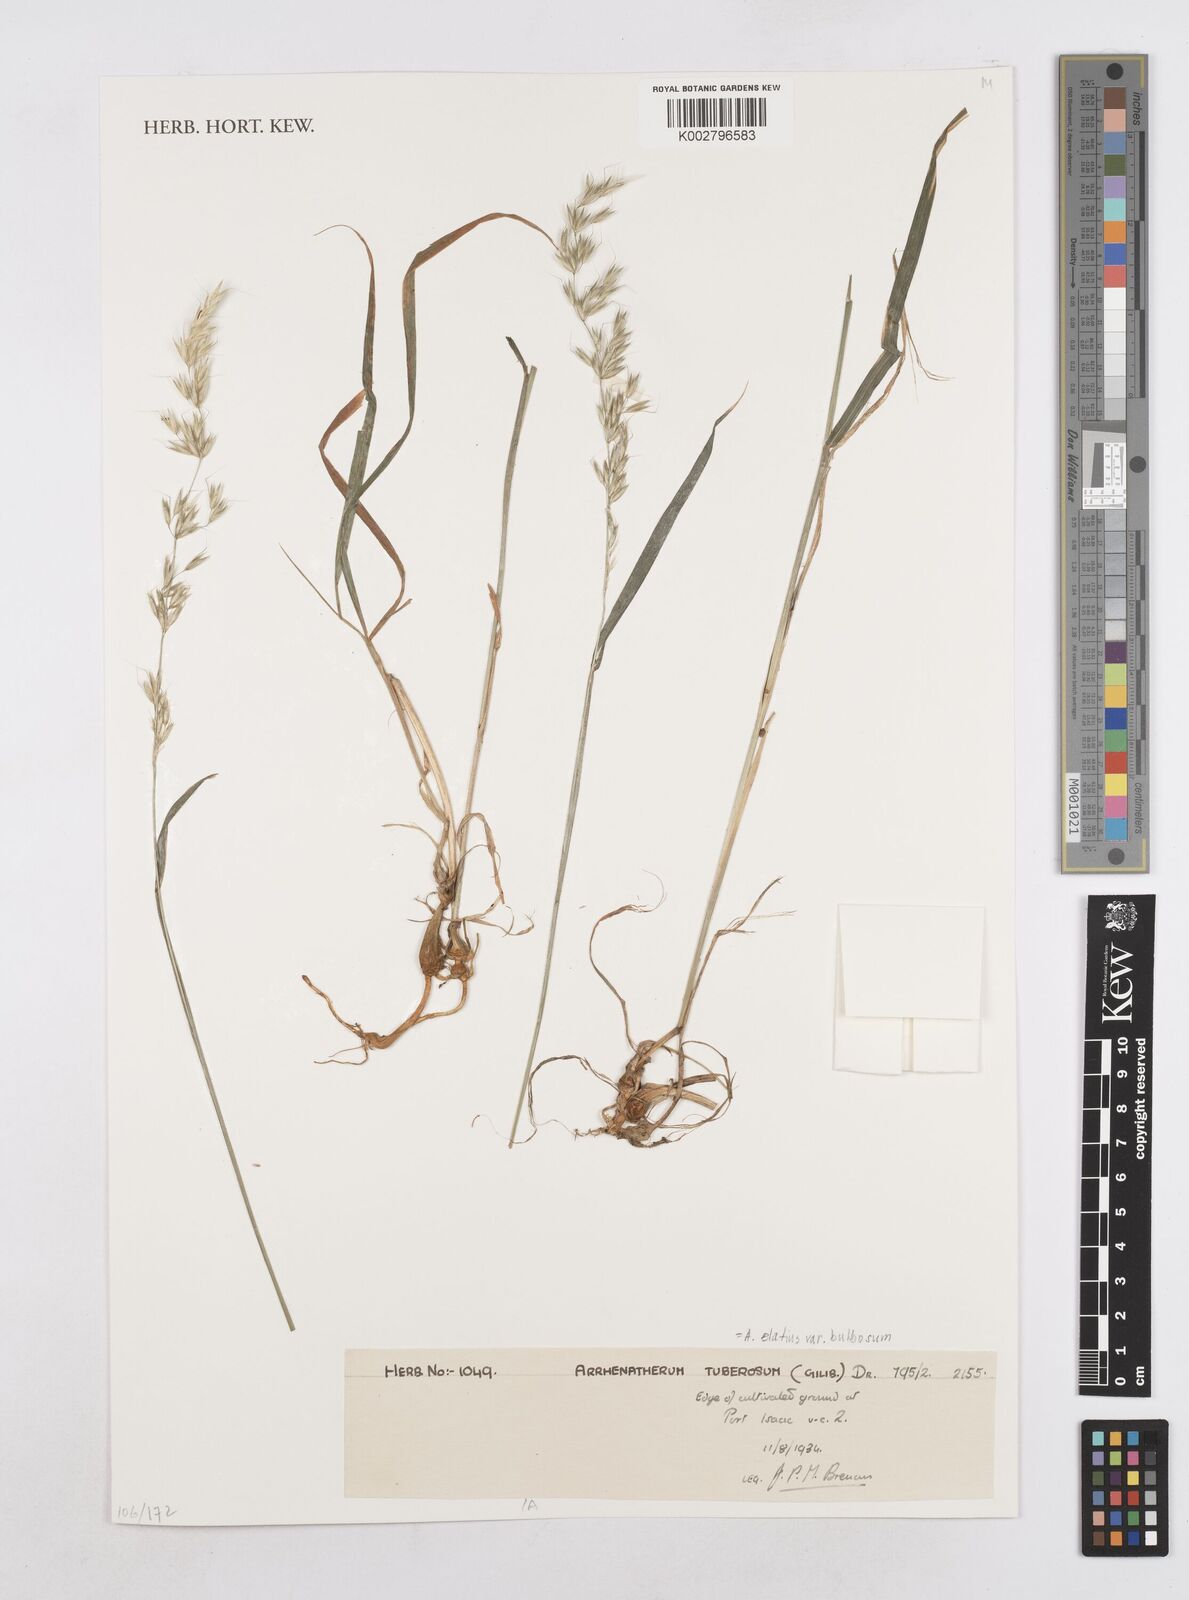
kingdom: Plantae
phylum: Tracheophyta
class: Liliopsida
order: Poales
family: Poaceae
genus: Arrhenatherum
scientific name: Arrhenatherum elatius
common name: Tall oatgrass
